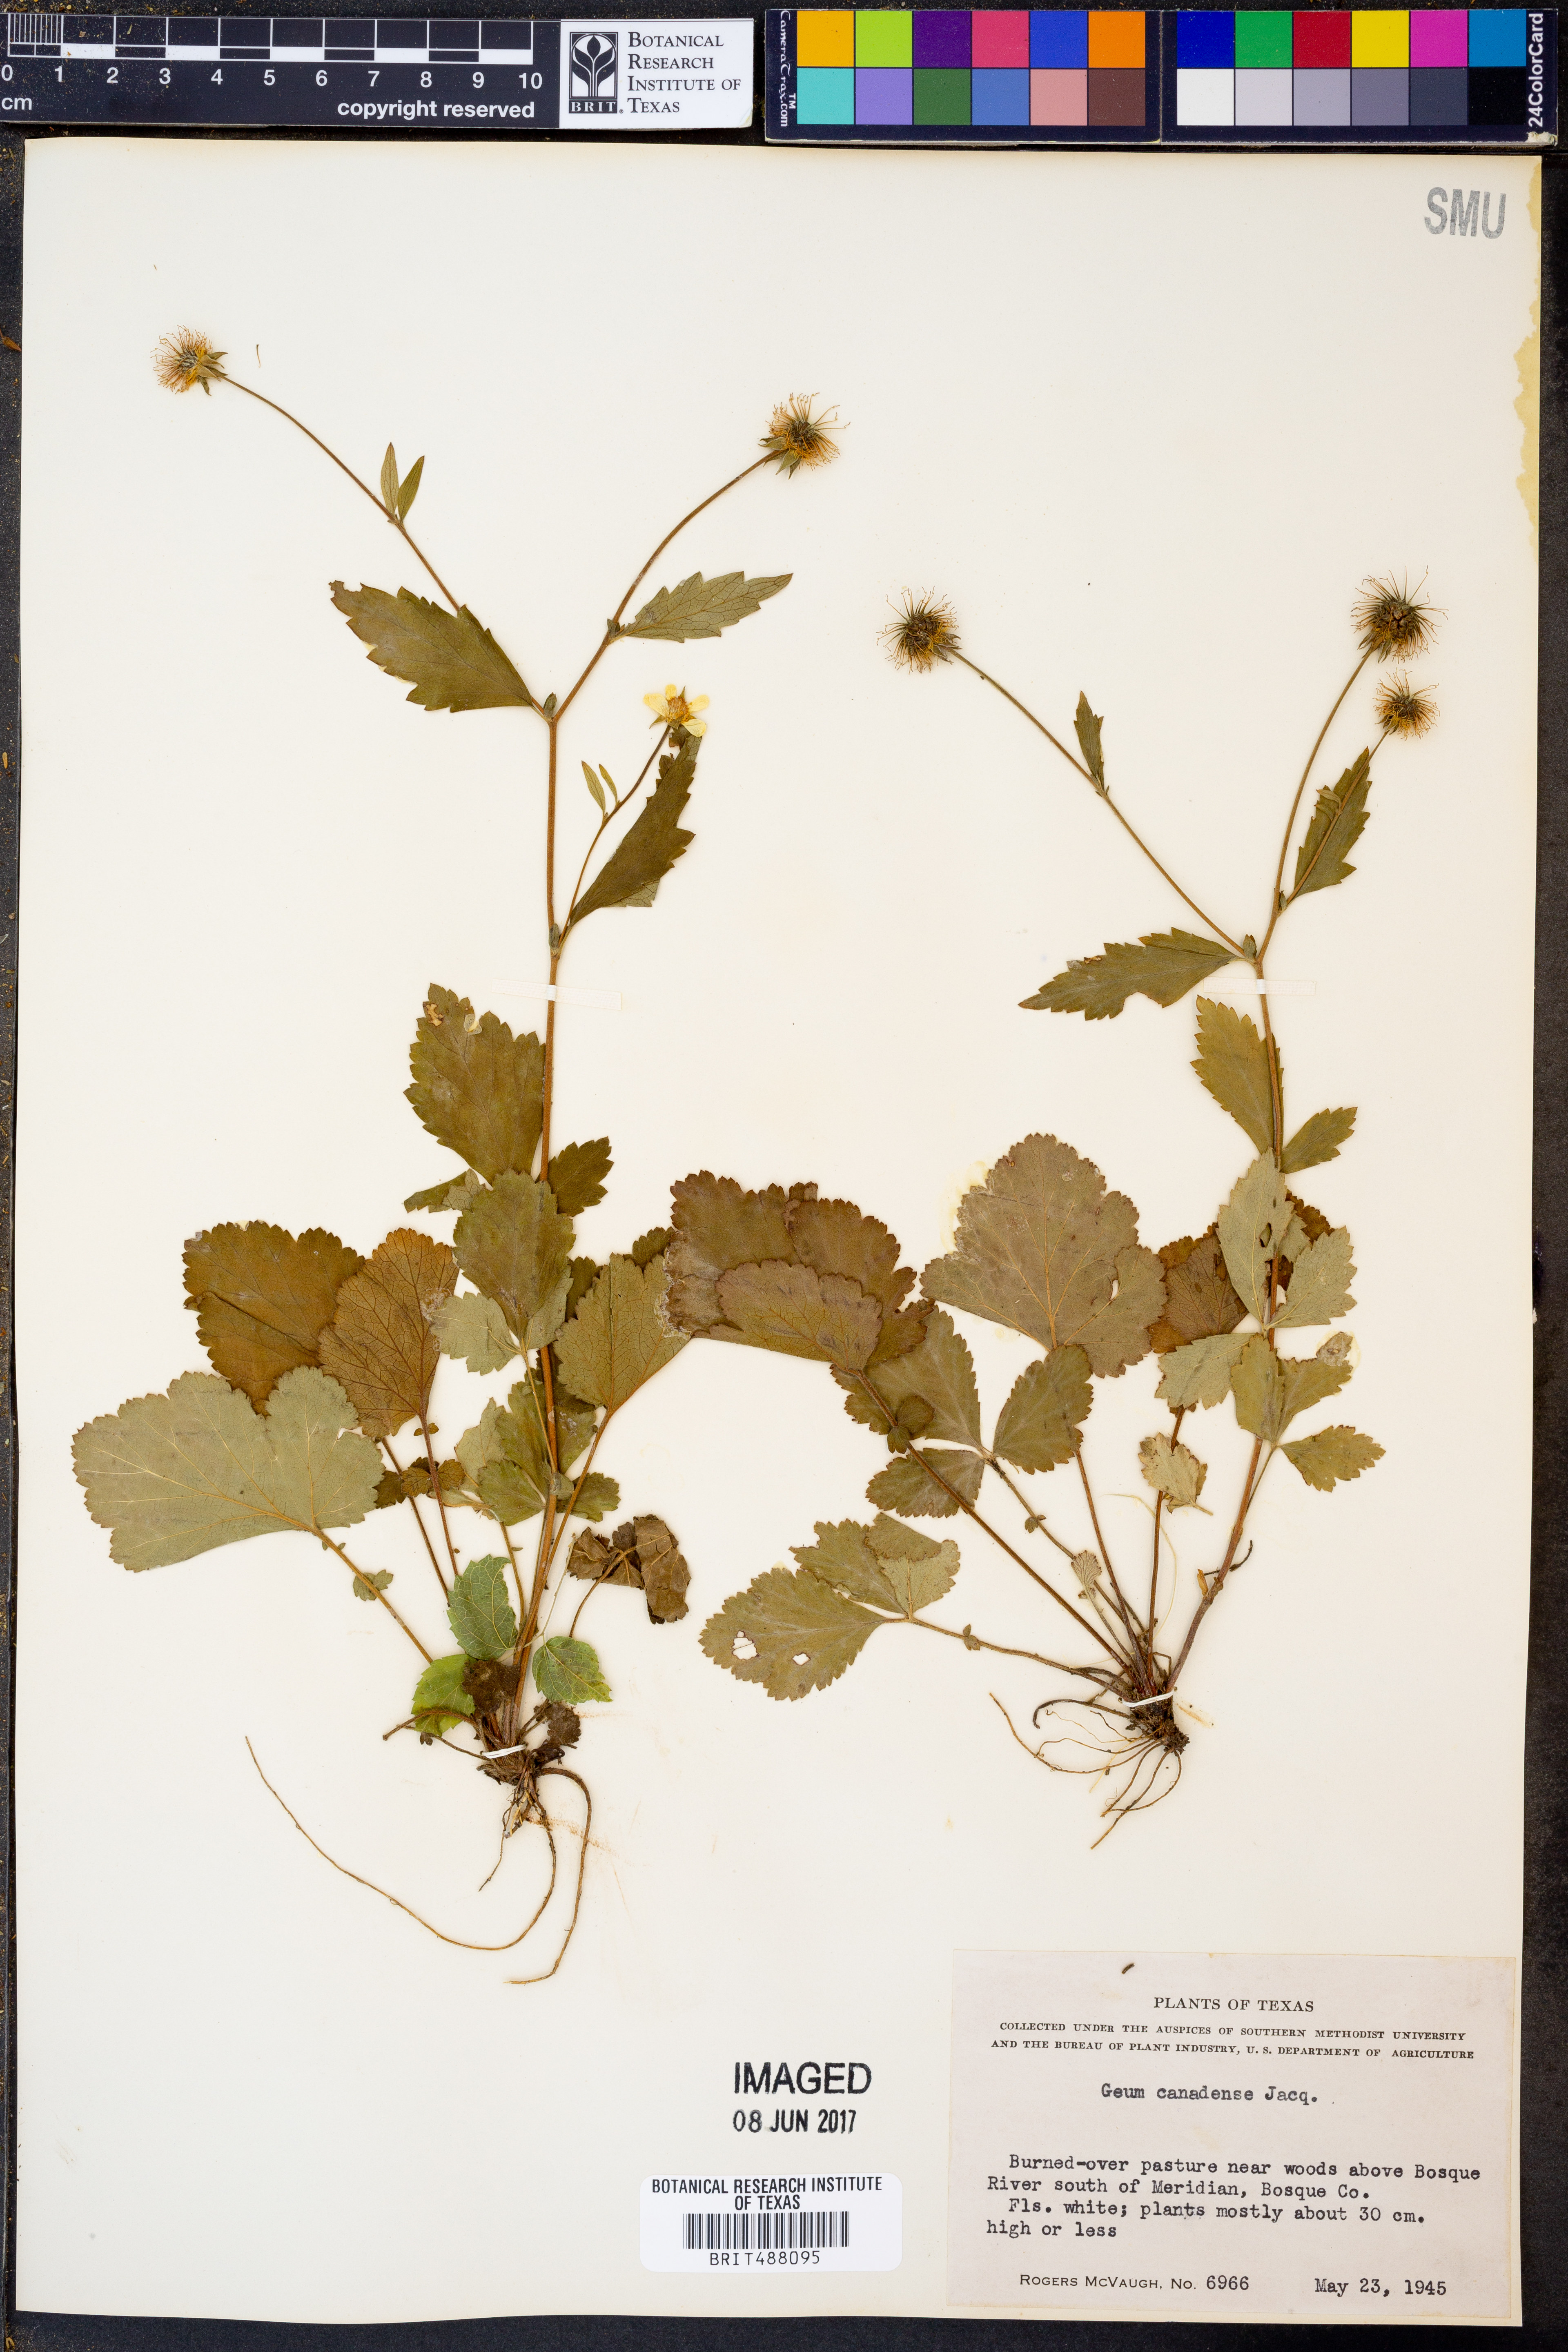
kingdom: Plantae
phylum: Tracheophyta
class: Magnoliopsida
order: Rosales
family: Rosaceae
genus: Geum
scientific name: Geum canadense
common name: White avens
